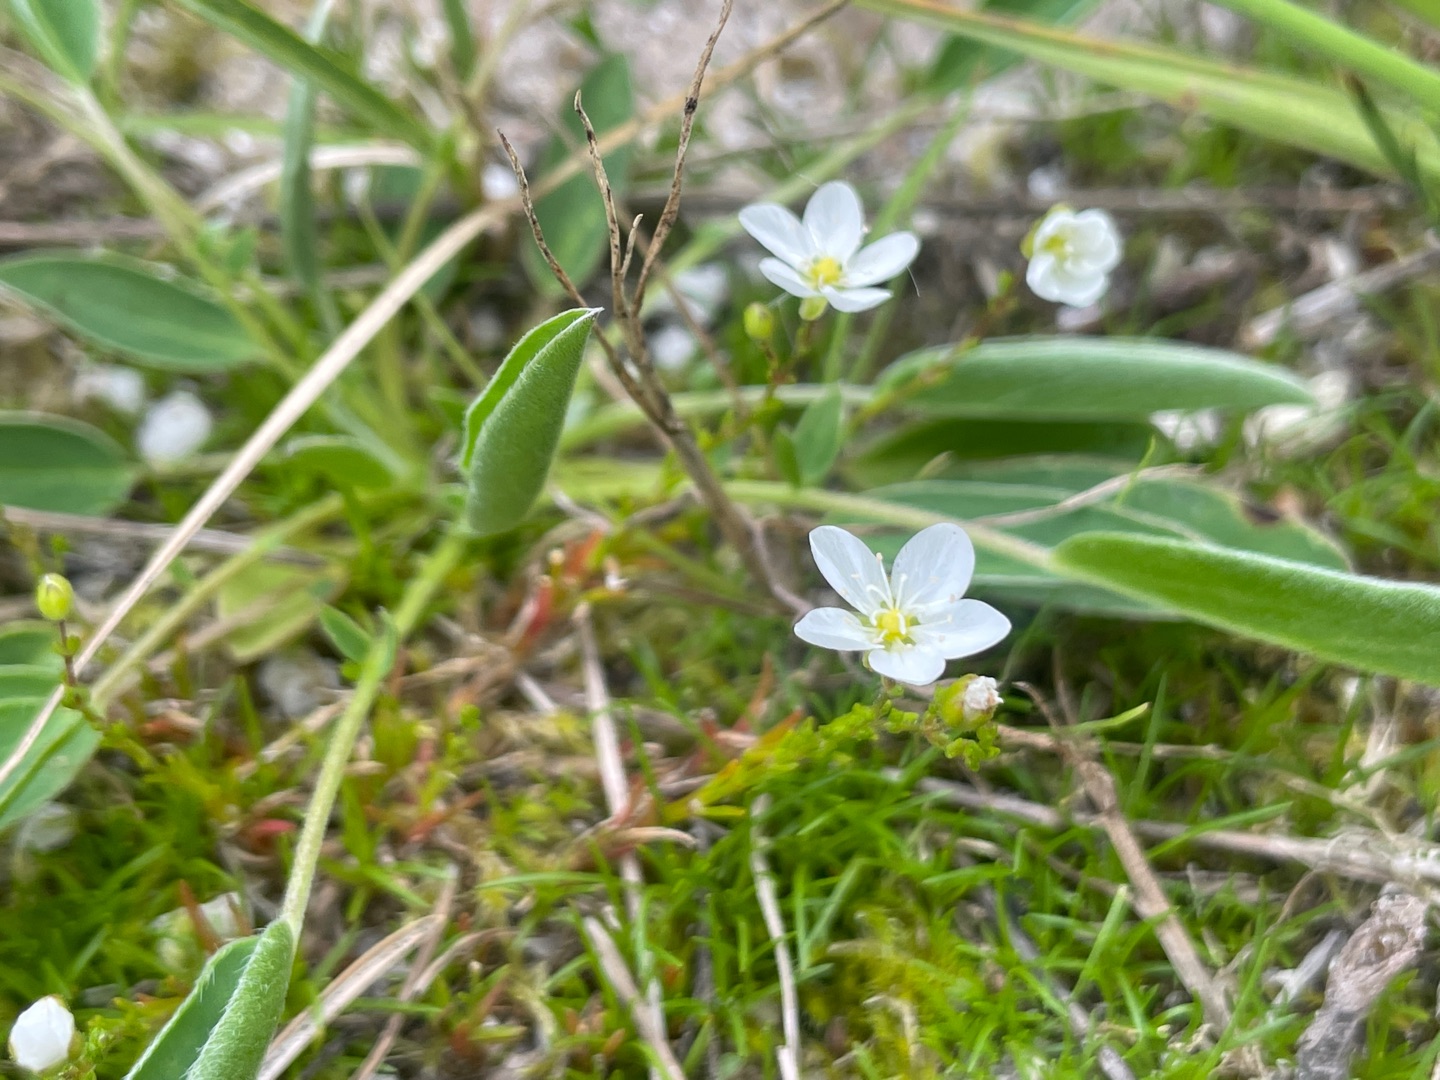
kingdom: Plantae
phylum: Tracheophyta
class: Magnoliopsida
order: Caryophyllales
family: Caryophyllaceae
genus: Sagina
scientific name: Sagina nodosa
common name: Knude-firling
